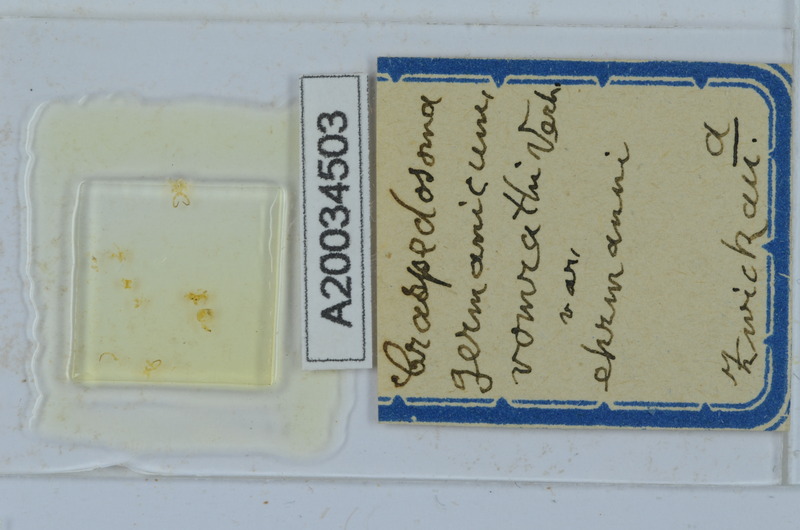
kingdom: Animalia
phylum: Arthropoda
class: Diplopoda
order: Chordeumatida
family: Craspedosomatidae
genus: Craspedosoma
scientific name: Craspedosoma rawlinsii
